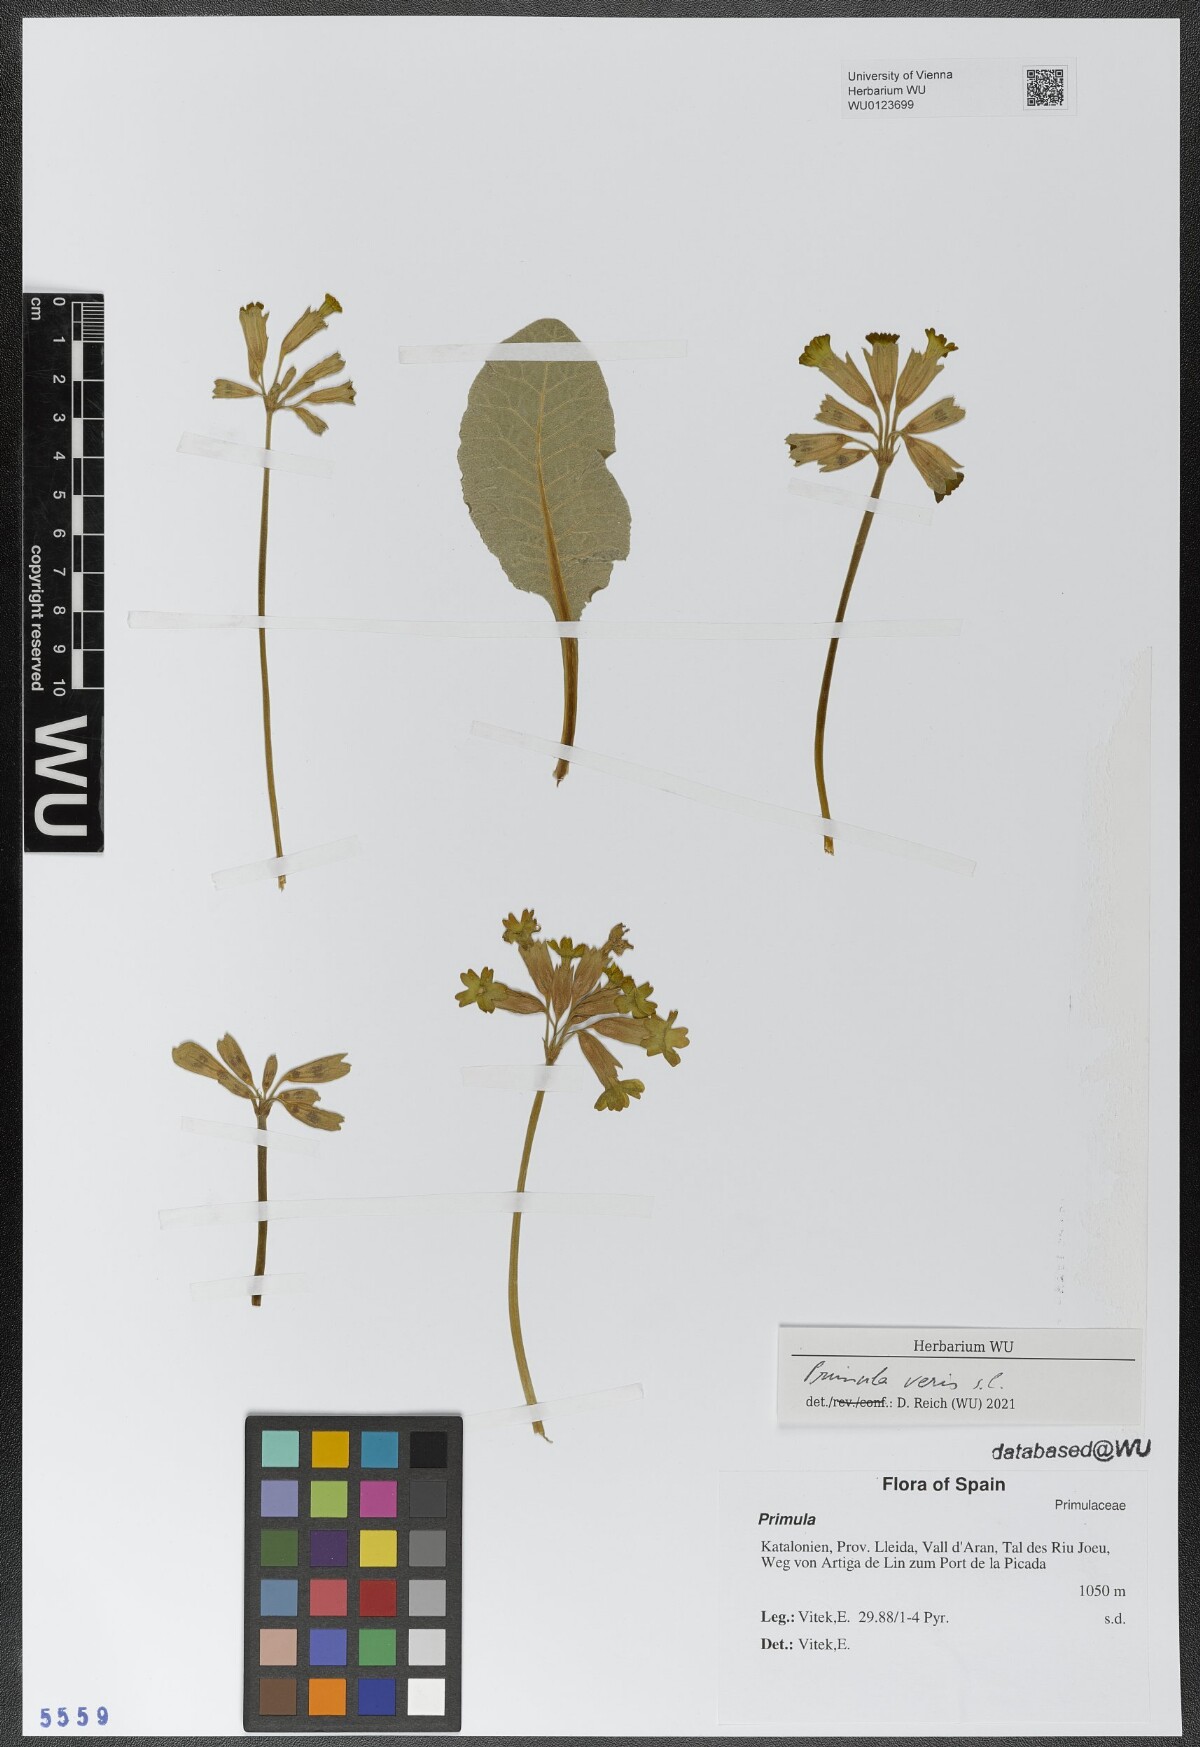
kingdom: Plantae
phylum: Tracheophyta
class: Magnoliopsida
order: Ericales
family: Primulaceae
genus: Primula
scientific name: Primula veris
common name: Cowslip
